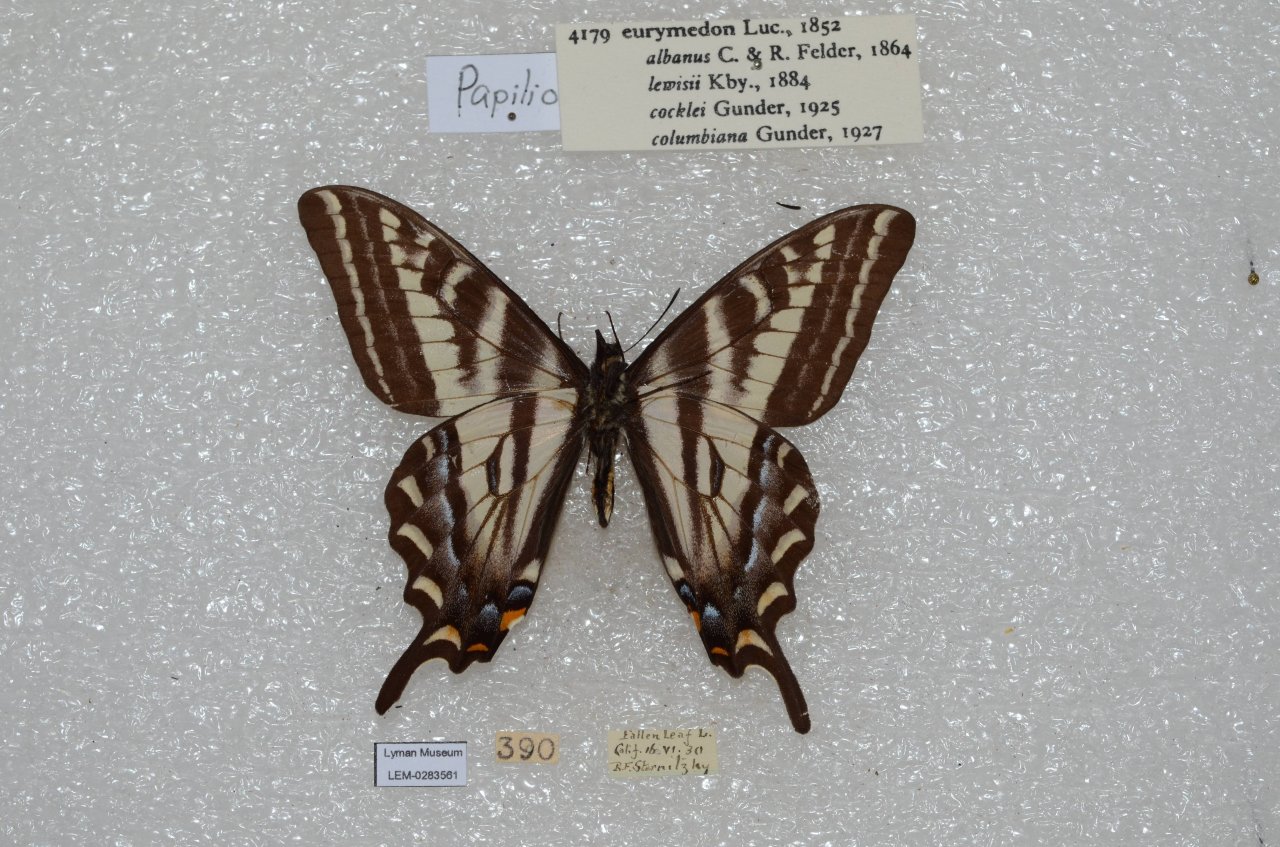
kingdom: Animalia
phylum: Arthropoda
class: Insecta
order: Lepidoptera
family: Papilionidae
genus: Pterourus
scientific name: Pterourus eurymedon
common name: Pale Swallowtail
